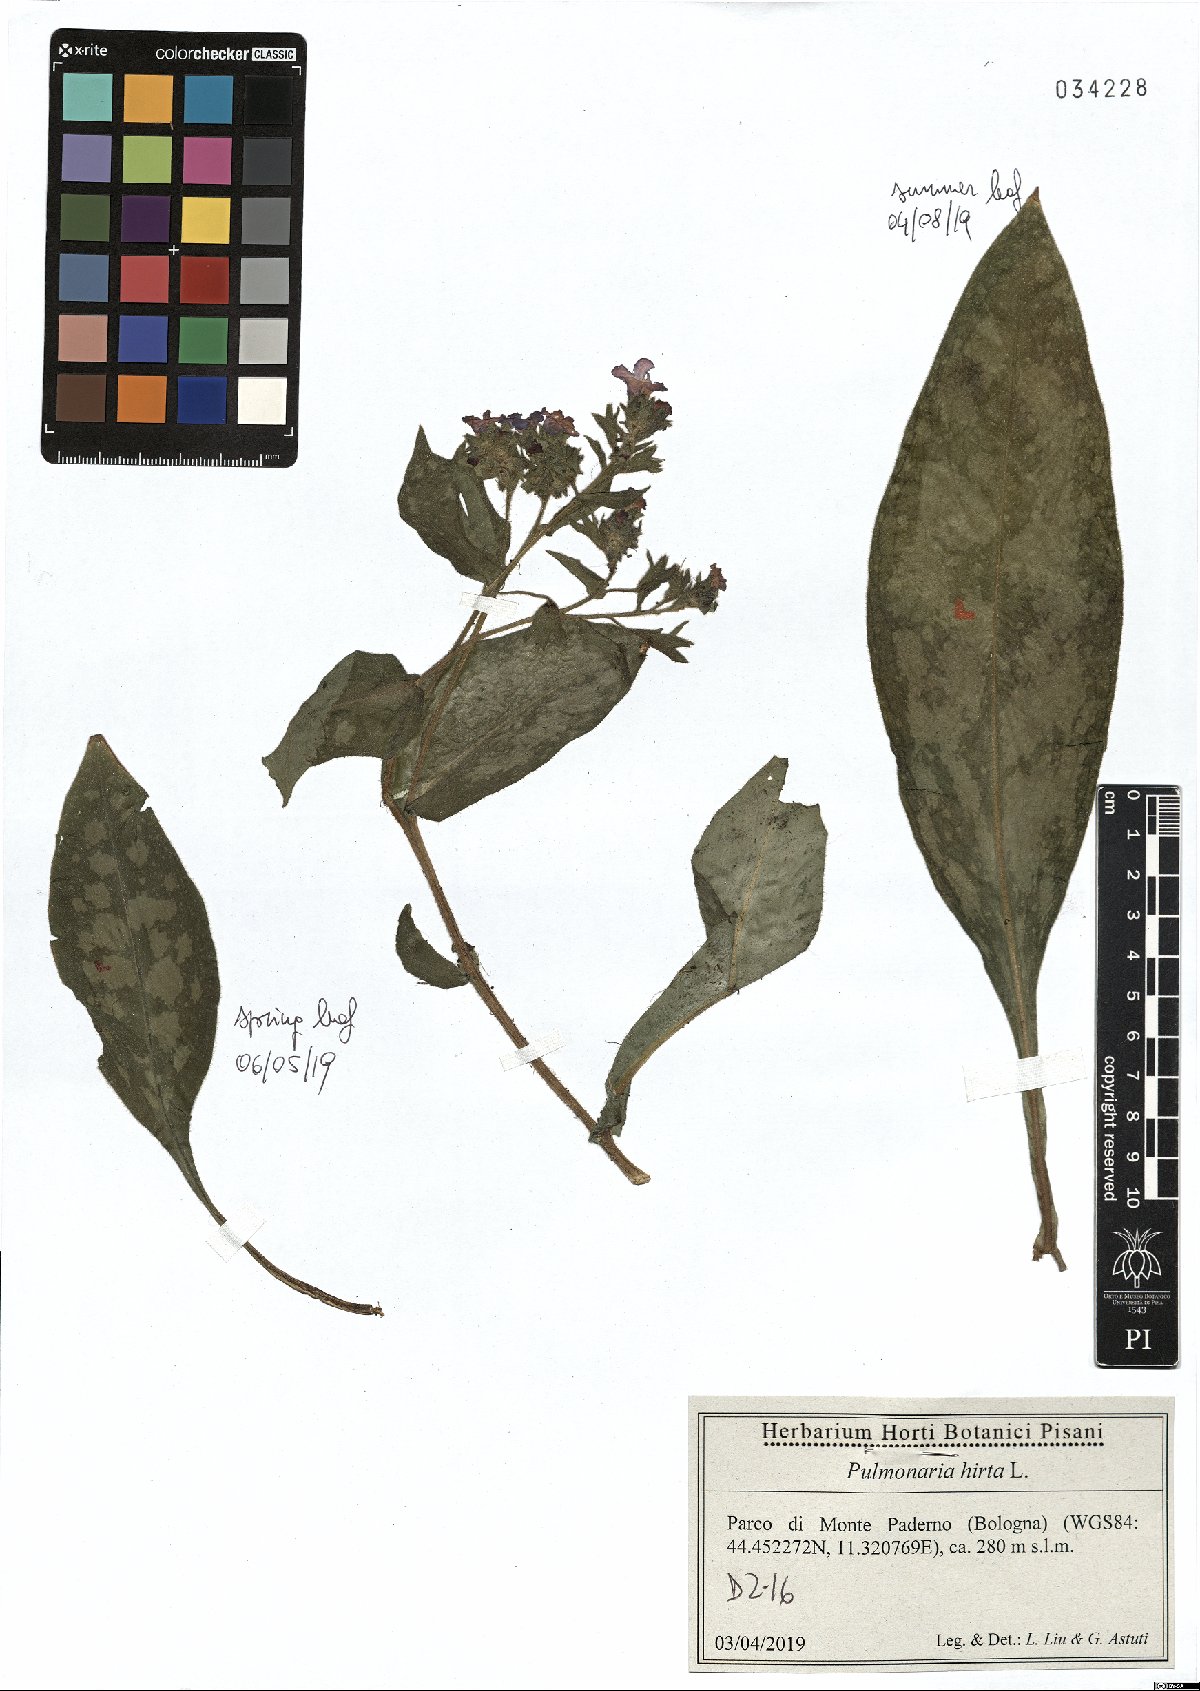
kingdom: Plantae
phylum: Tracheophyta
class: Magnoliopsida
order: Boraginales
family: Boraginaceae
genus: Pulmonaria
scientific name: Pulmonaria hirta
